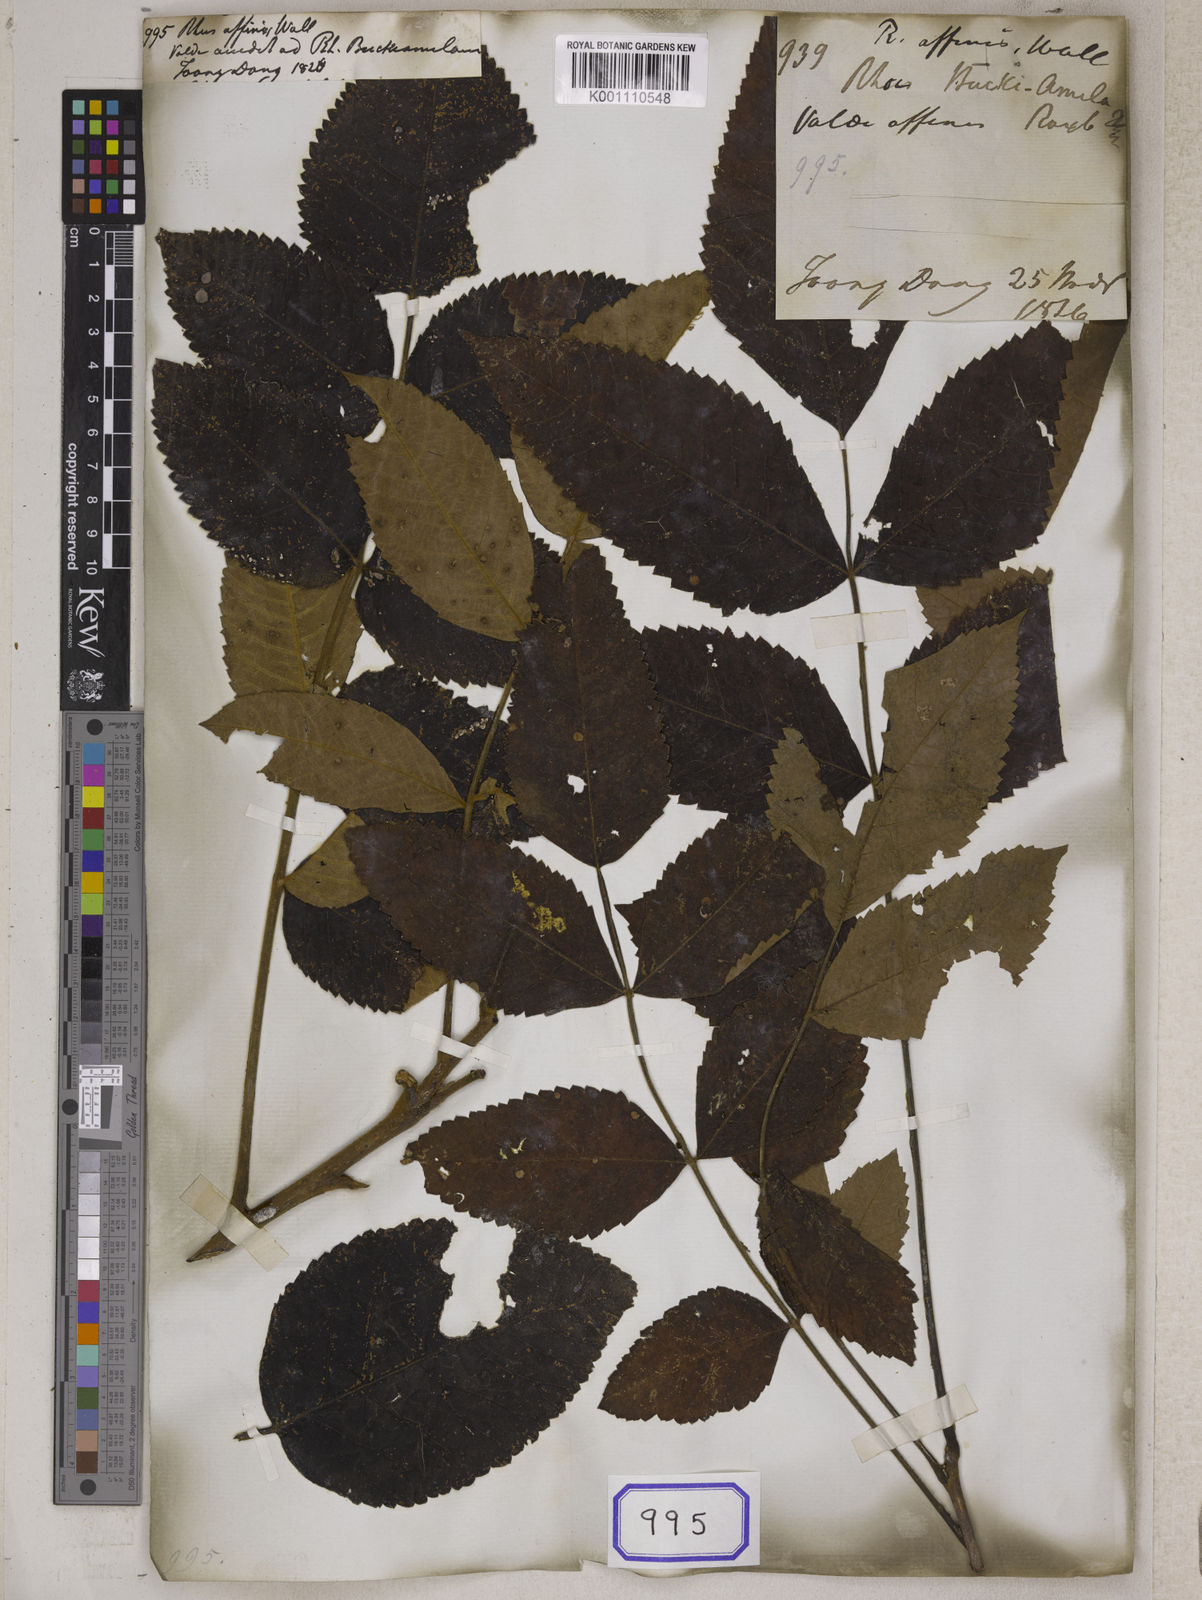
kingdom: Plantae
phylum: Tracheophyta
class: Magnoliopsida
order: Sapindales
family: Simaroubaceae
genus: Brucea
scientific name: Brucea javanica
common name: Macassar kernels
